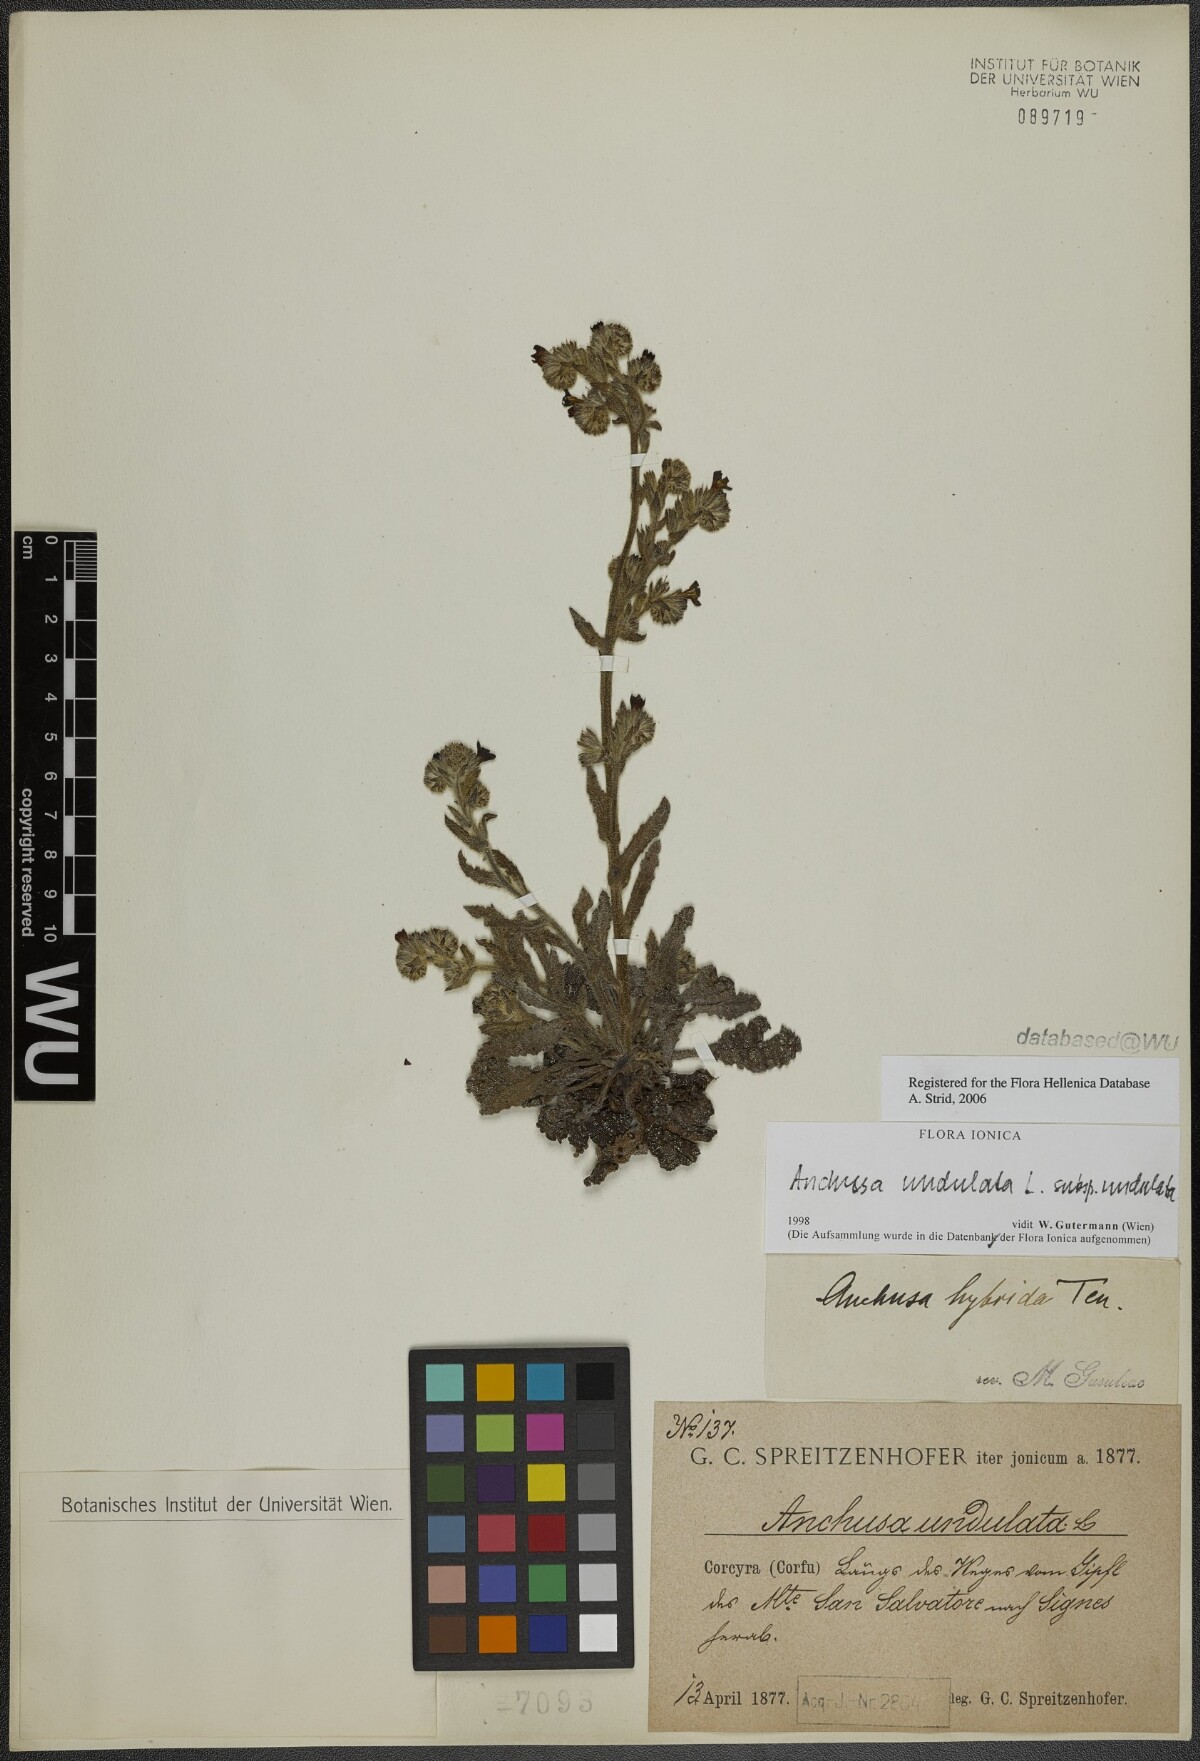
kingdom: Plantae
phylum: Tracheophyta
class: Magnoliopsida
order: Boraginales
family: Boraginaceae
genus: Anchusa
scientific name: Anchusa undulata
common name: Undulate alkanet
